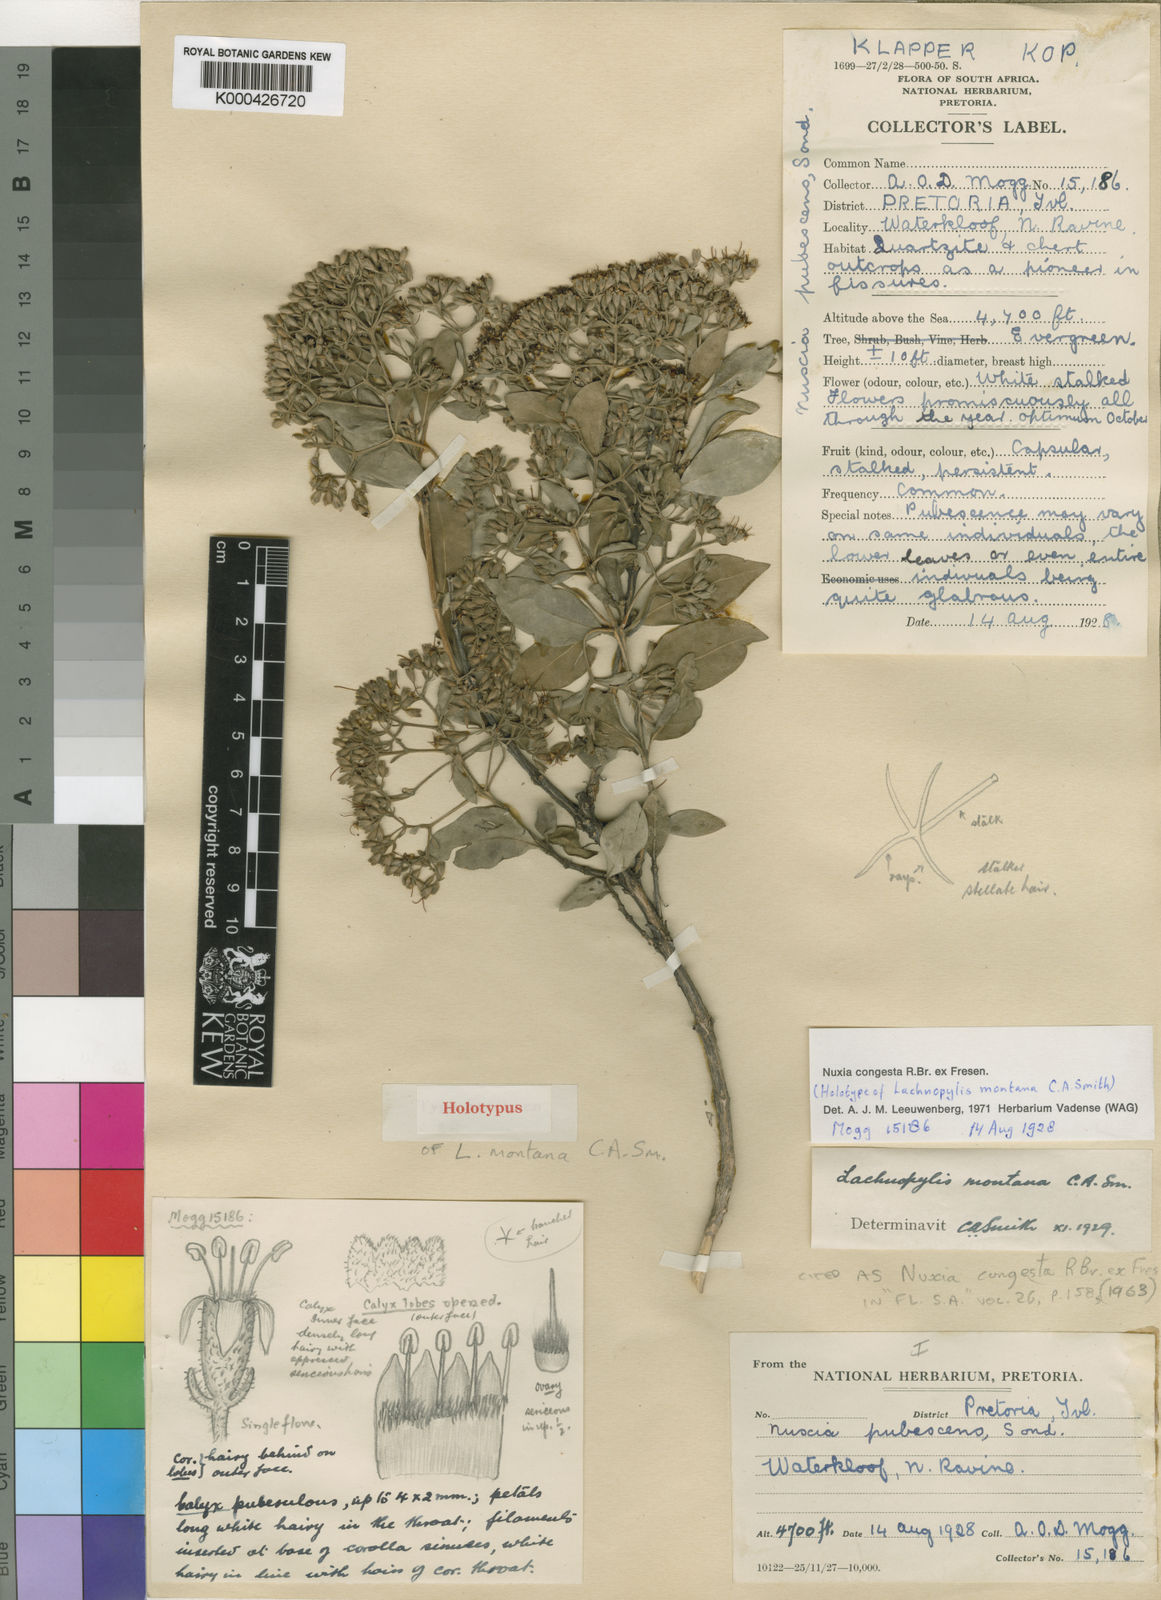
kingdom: Plantae
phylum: Tracheophyta
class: Magnoliopsida
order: Lamiales
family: Stilbaceae
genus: Nuxia
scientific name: Nuxia congesta
